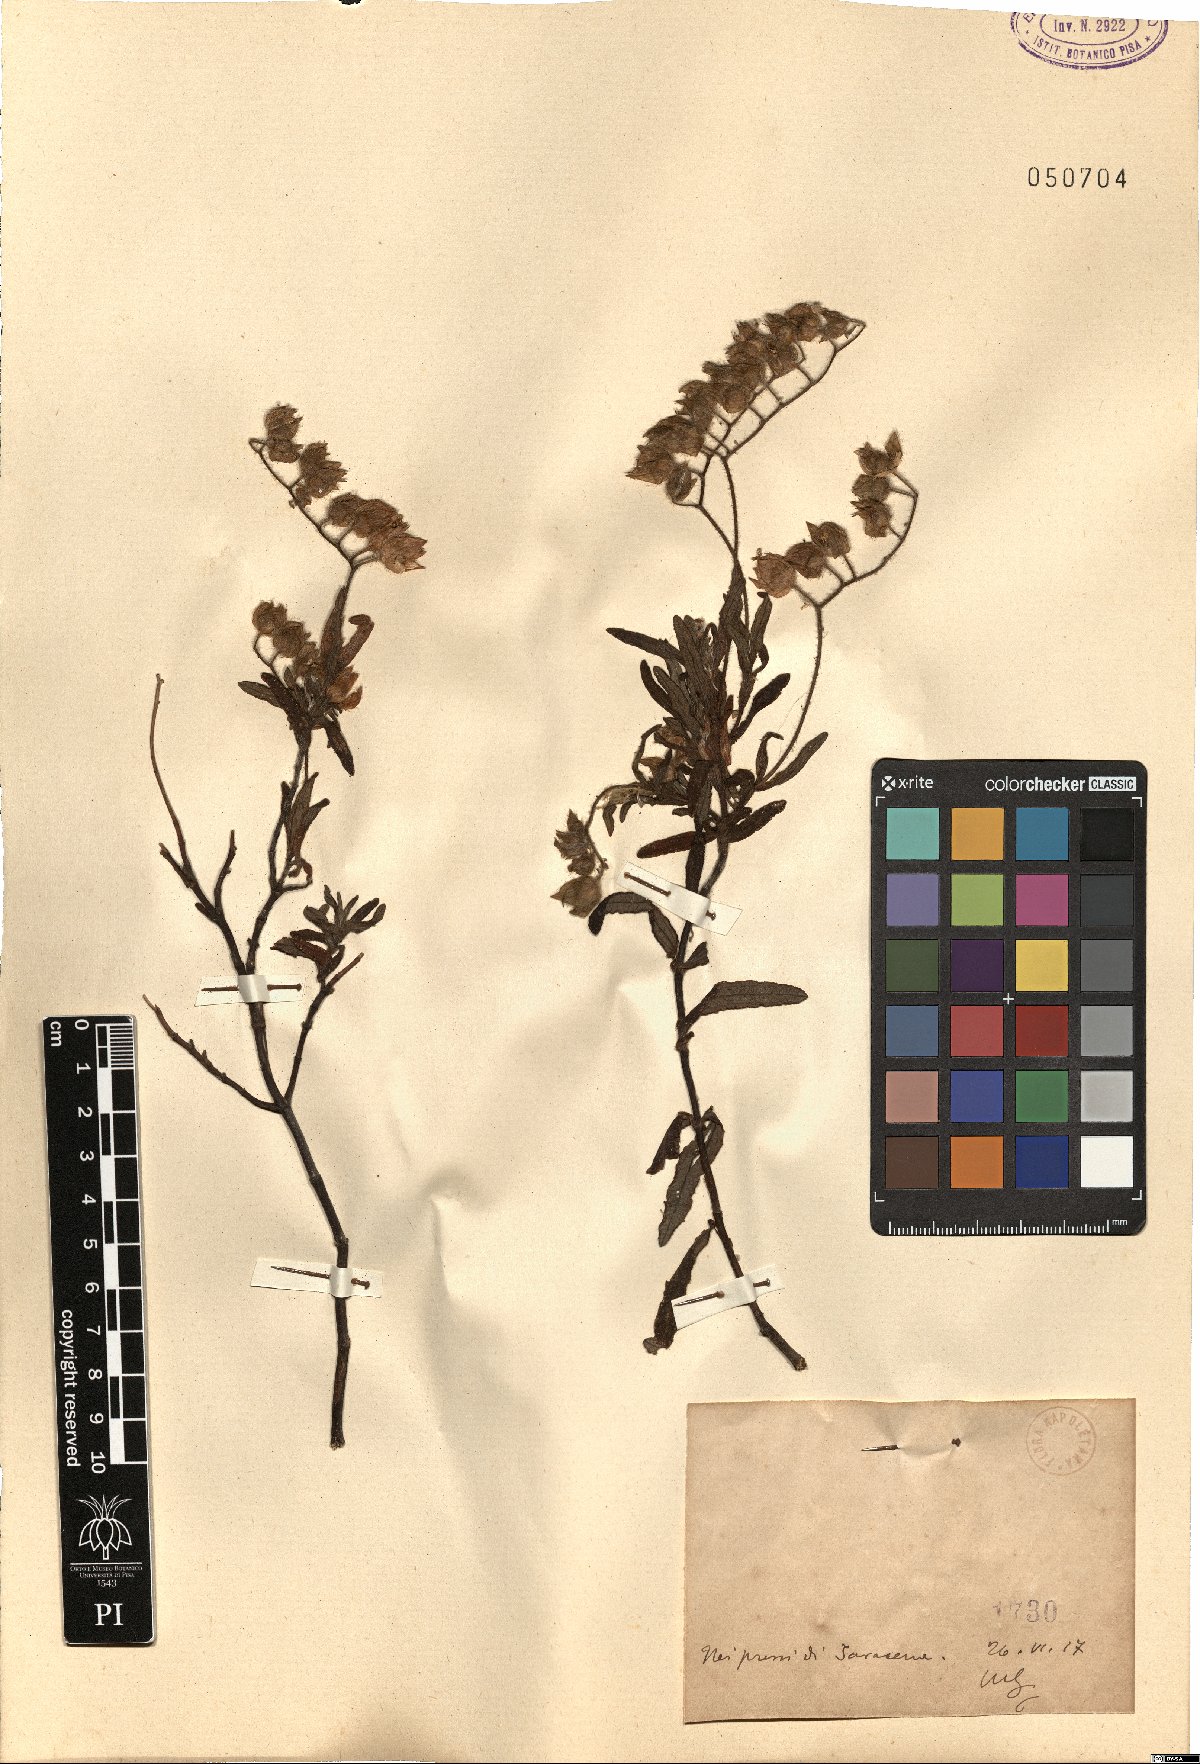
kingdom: Plantae
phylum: Tracheophyta
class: Magnoliopsida
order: Malvales
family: Cistaceae
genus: Cistus
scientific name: Cistus
